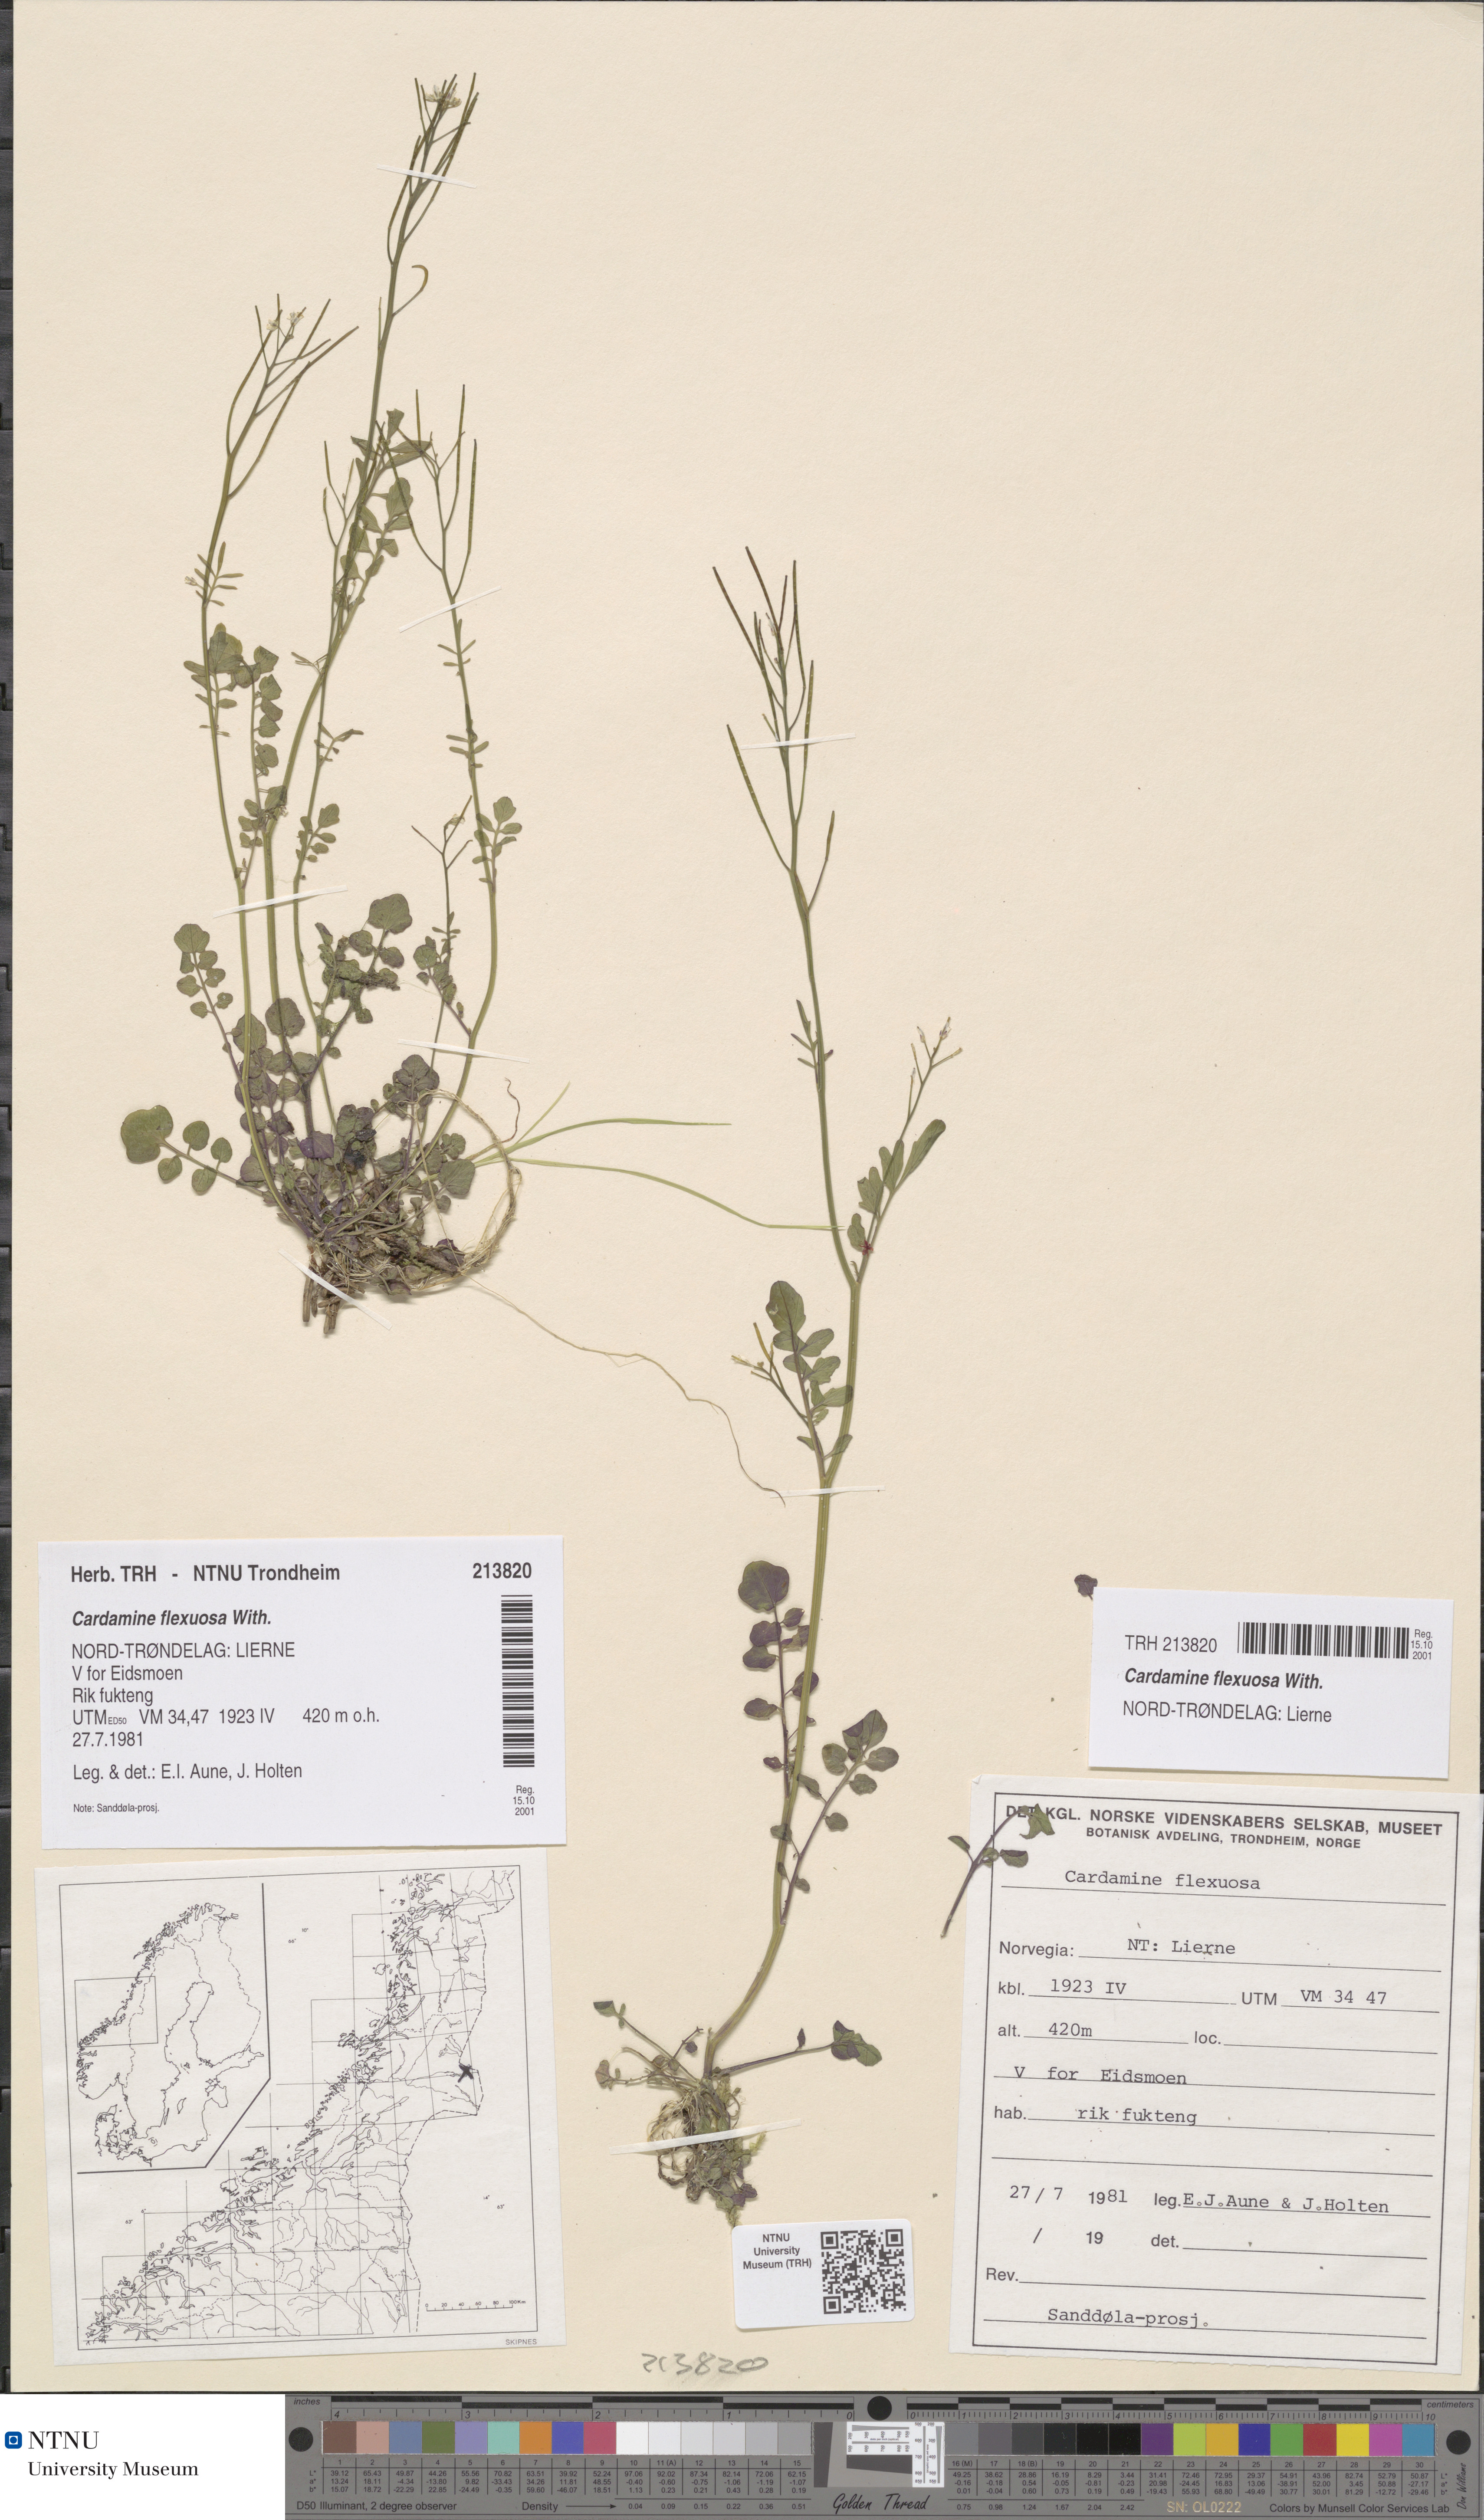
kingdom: Plantae
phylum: Tracheophyta
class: Magnoliopsida
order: Brassicales
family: Brassicaceae
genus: Cardamine
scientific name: Cardamine flexuosa
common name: Woodland bittercress
